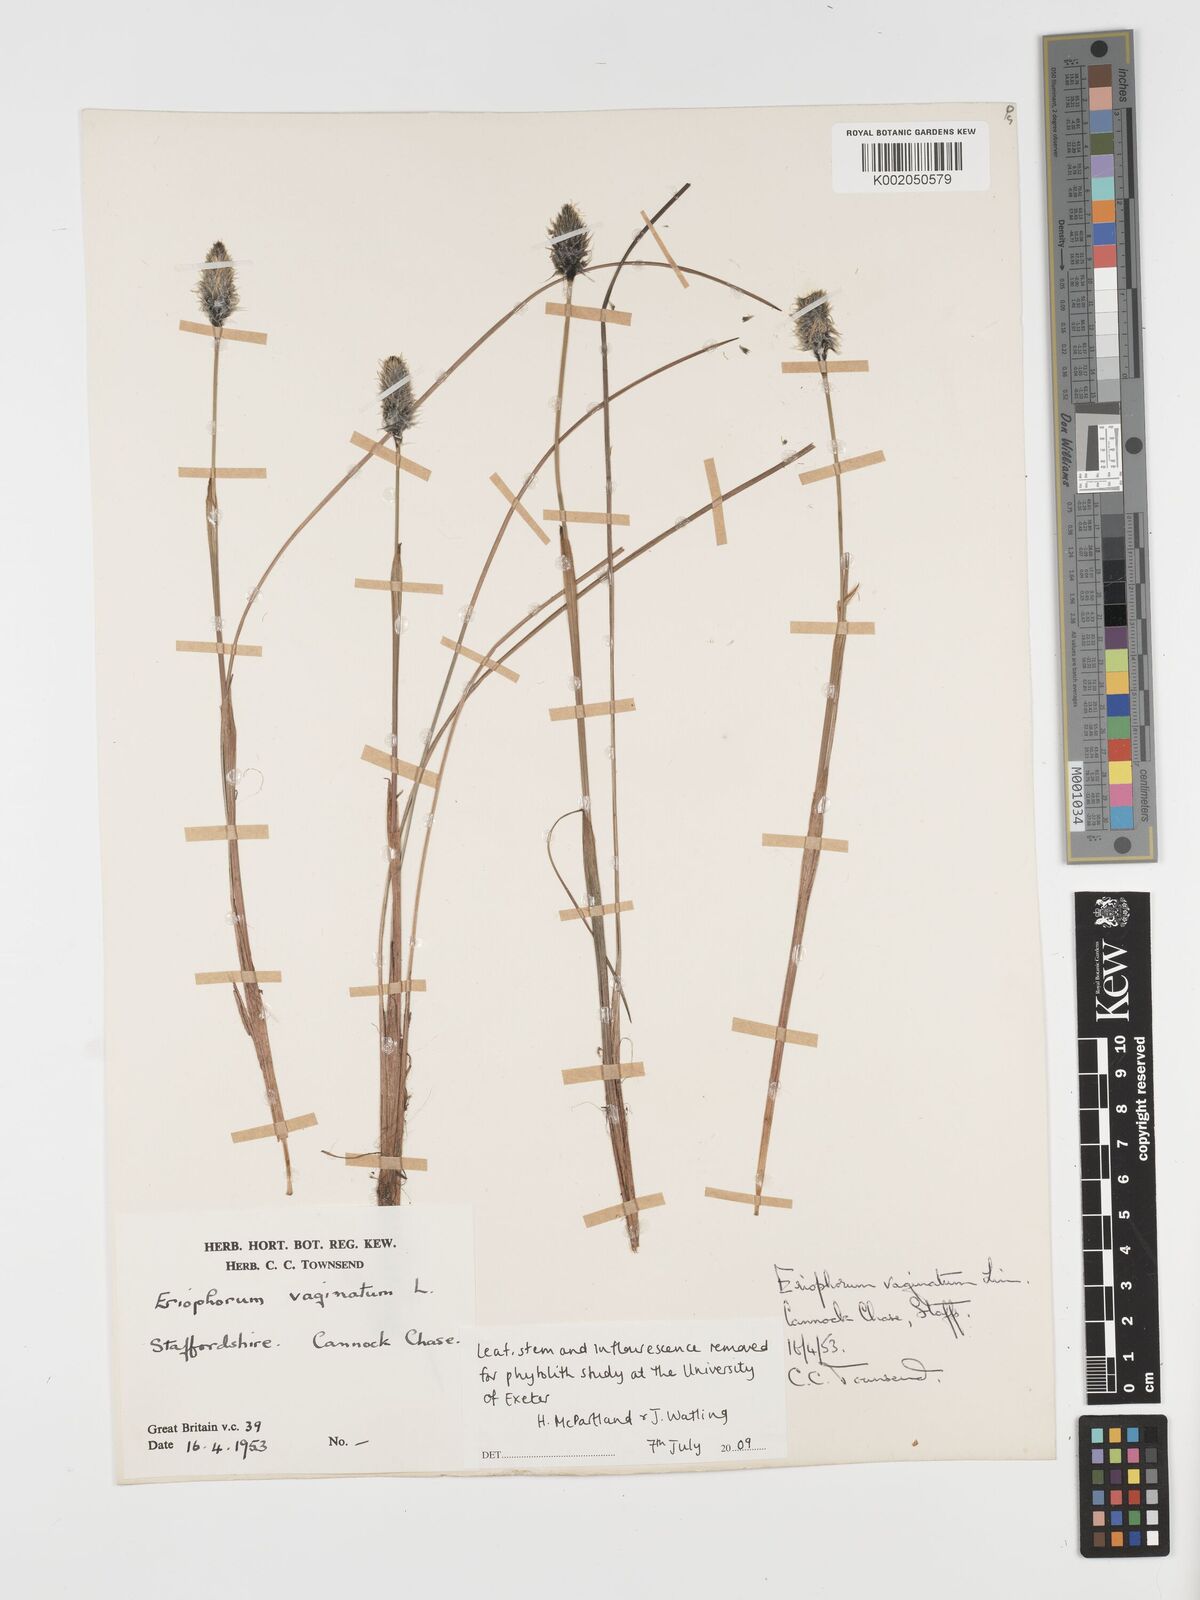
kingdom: Plantae
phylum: Tracheophyta
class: Liliopsida
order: Poales
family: Cyperaceae
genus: Eriophorum
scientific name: Eriophorum vaginatum
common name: Hare's-tail cottongrass
